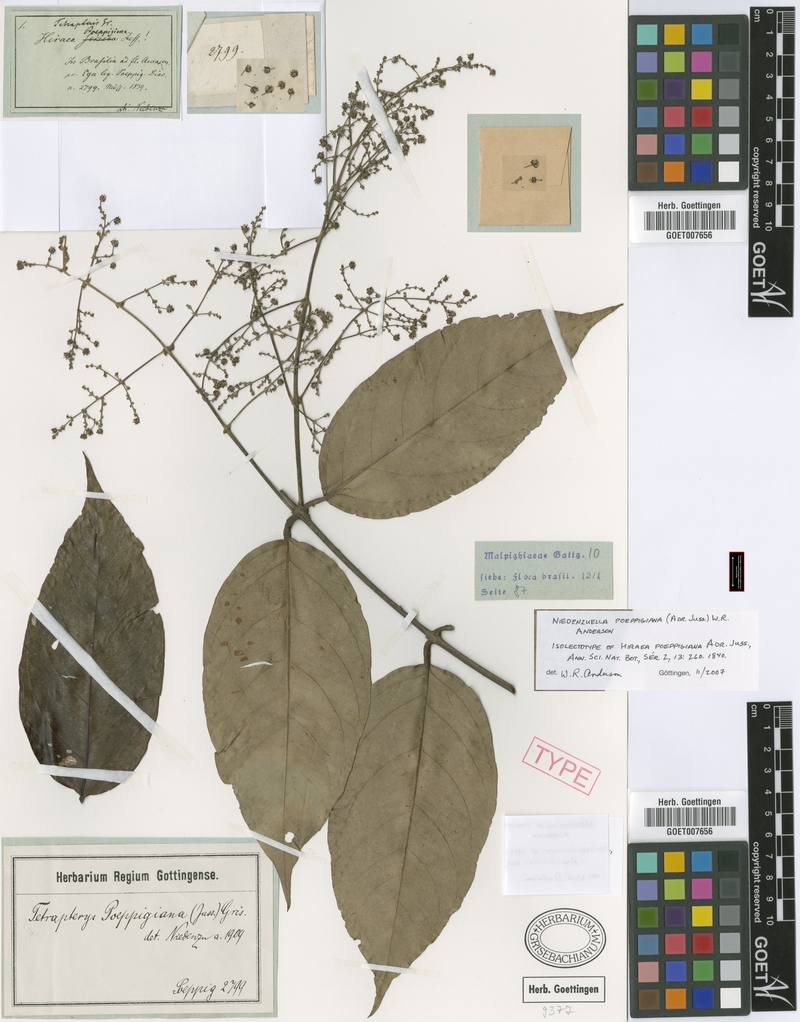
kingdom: Plantae
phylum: Tracheophyta
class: Magnoliopsida
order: Malpighiales
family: Malpighiaceae
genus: Niedenzuella
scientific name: Niedenzuella poeppigiana
